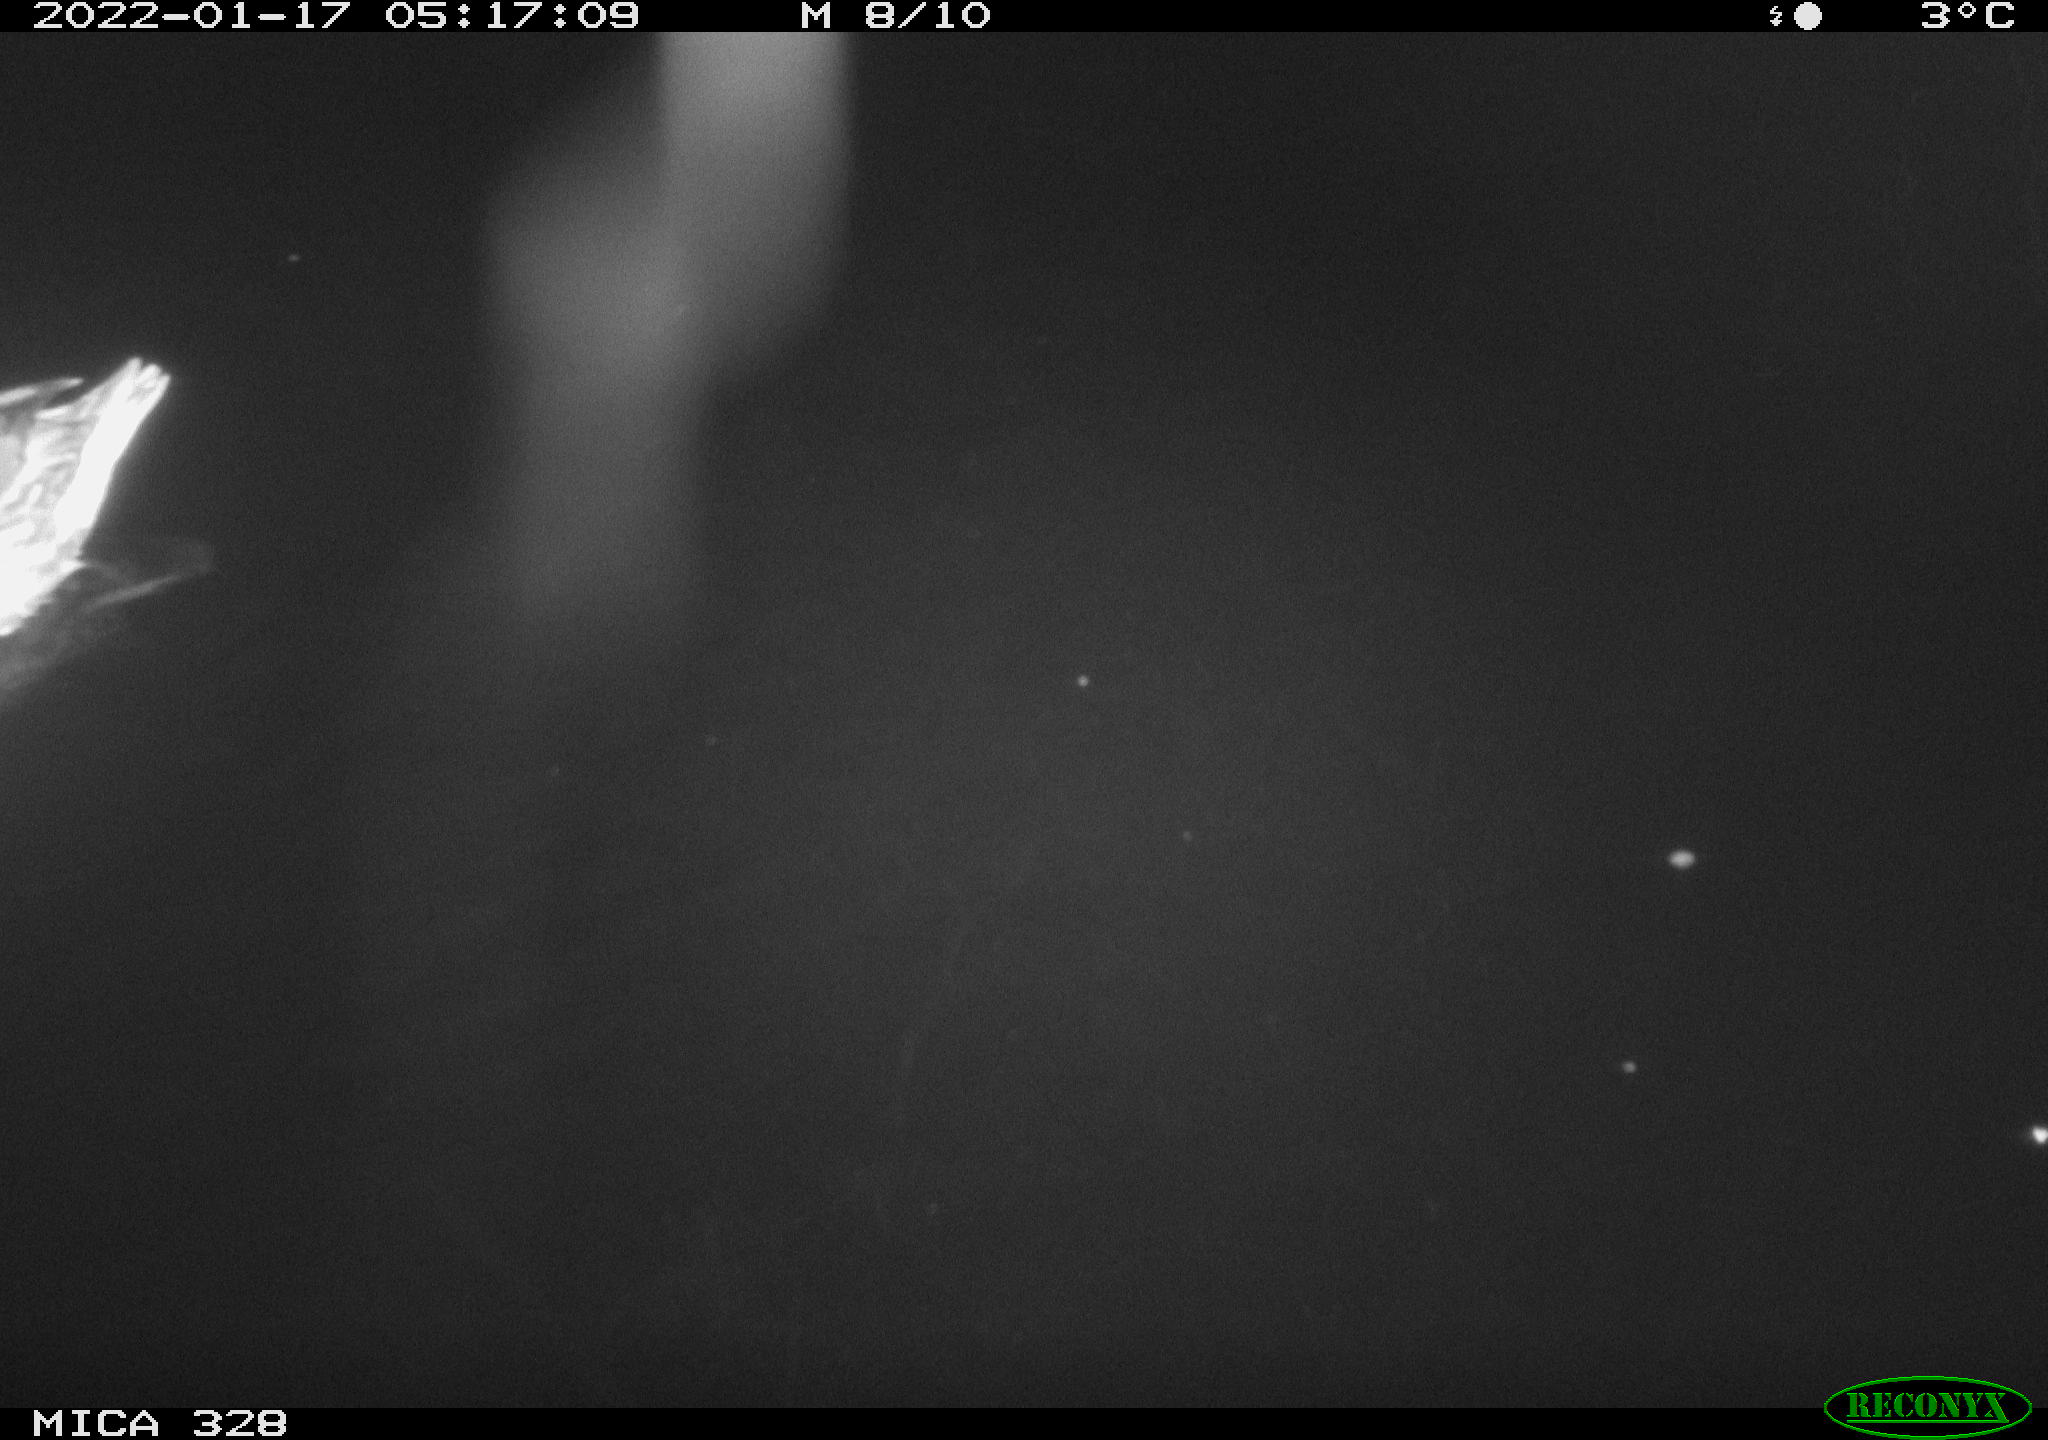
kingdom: Animalia
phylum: Chordata
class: Aves
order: Anseriformes
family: Anatidae
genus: Anas
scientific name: Anas platyrhynchos
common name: Mallard
